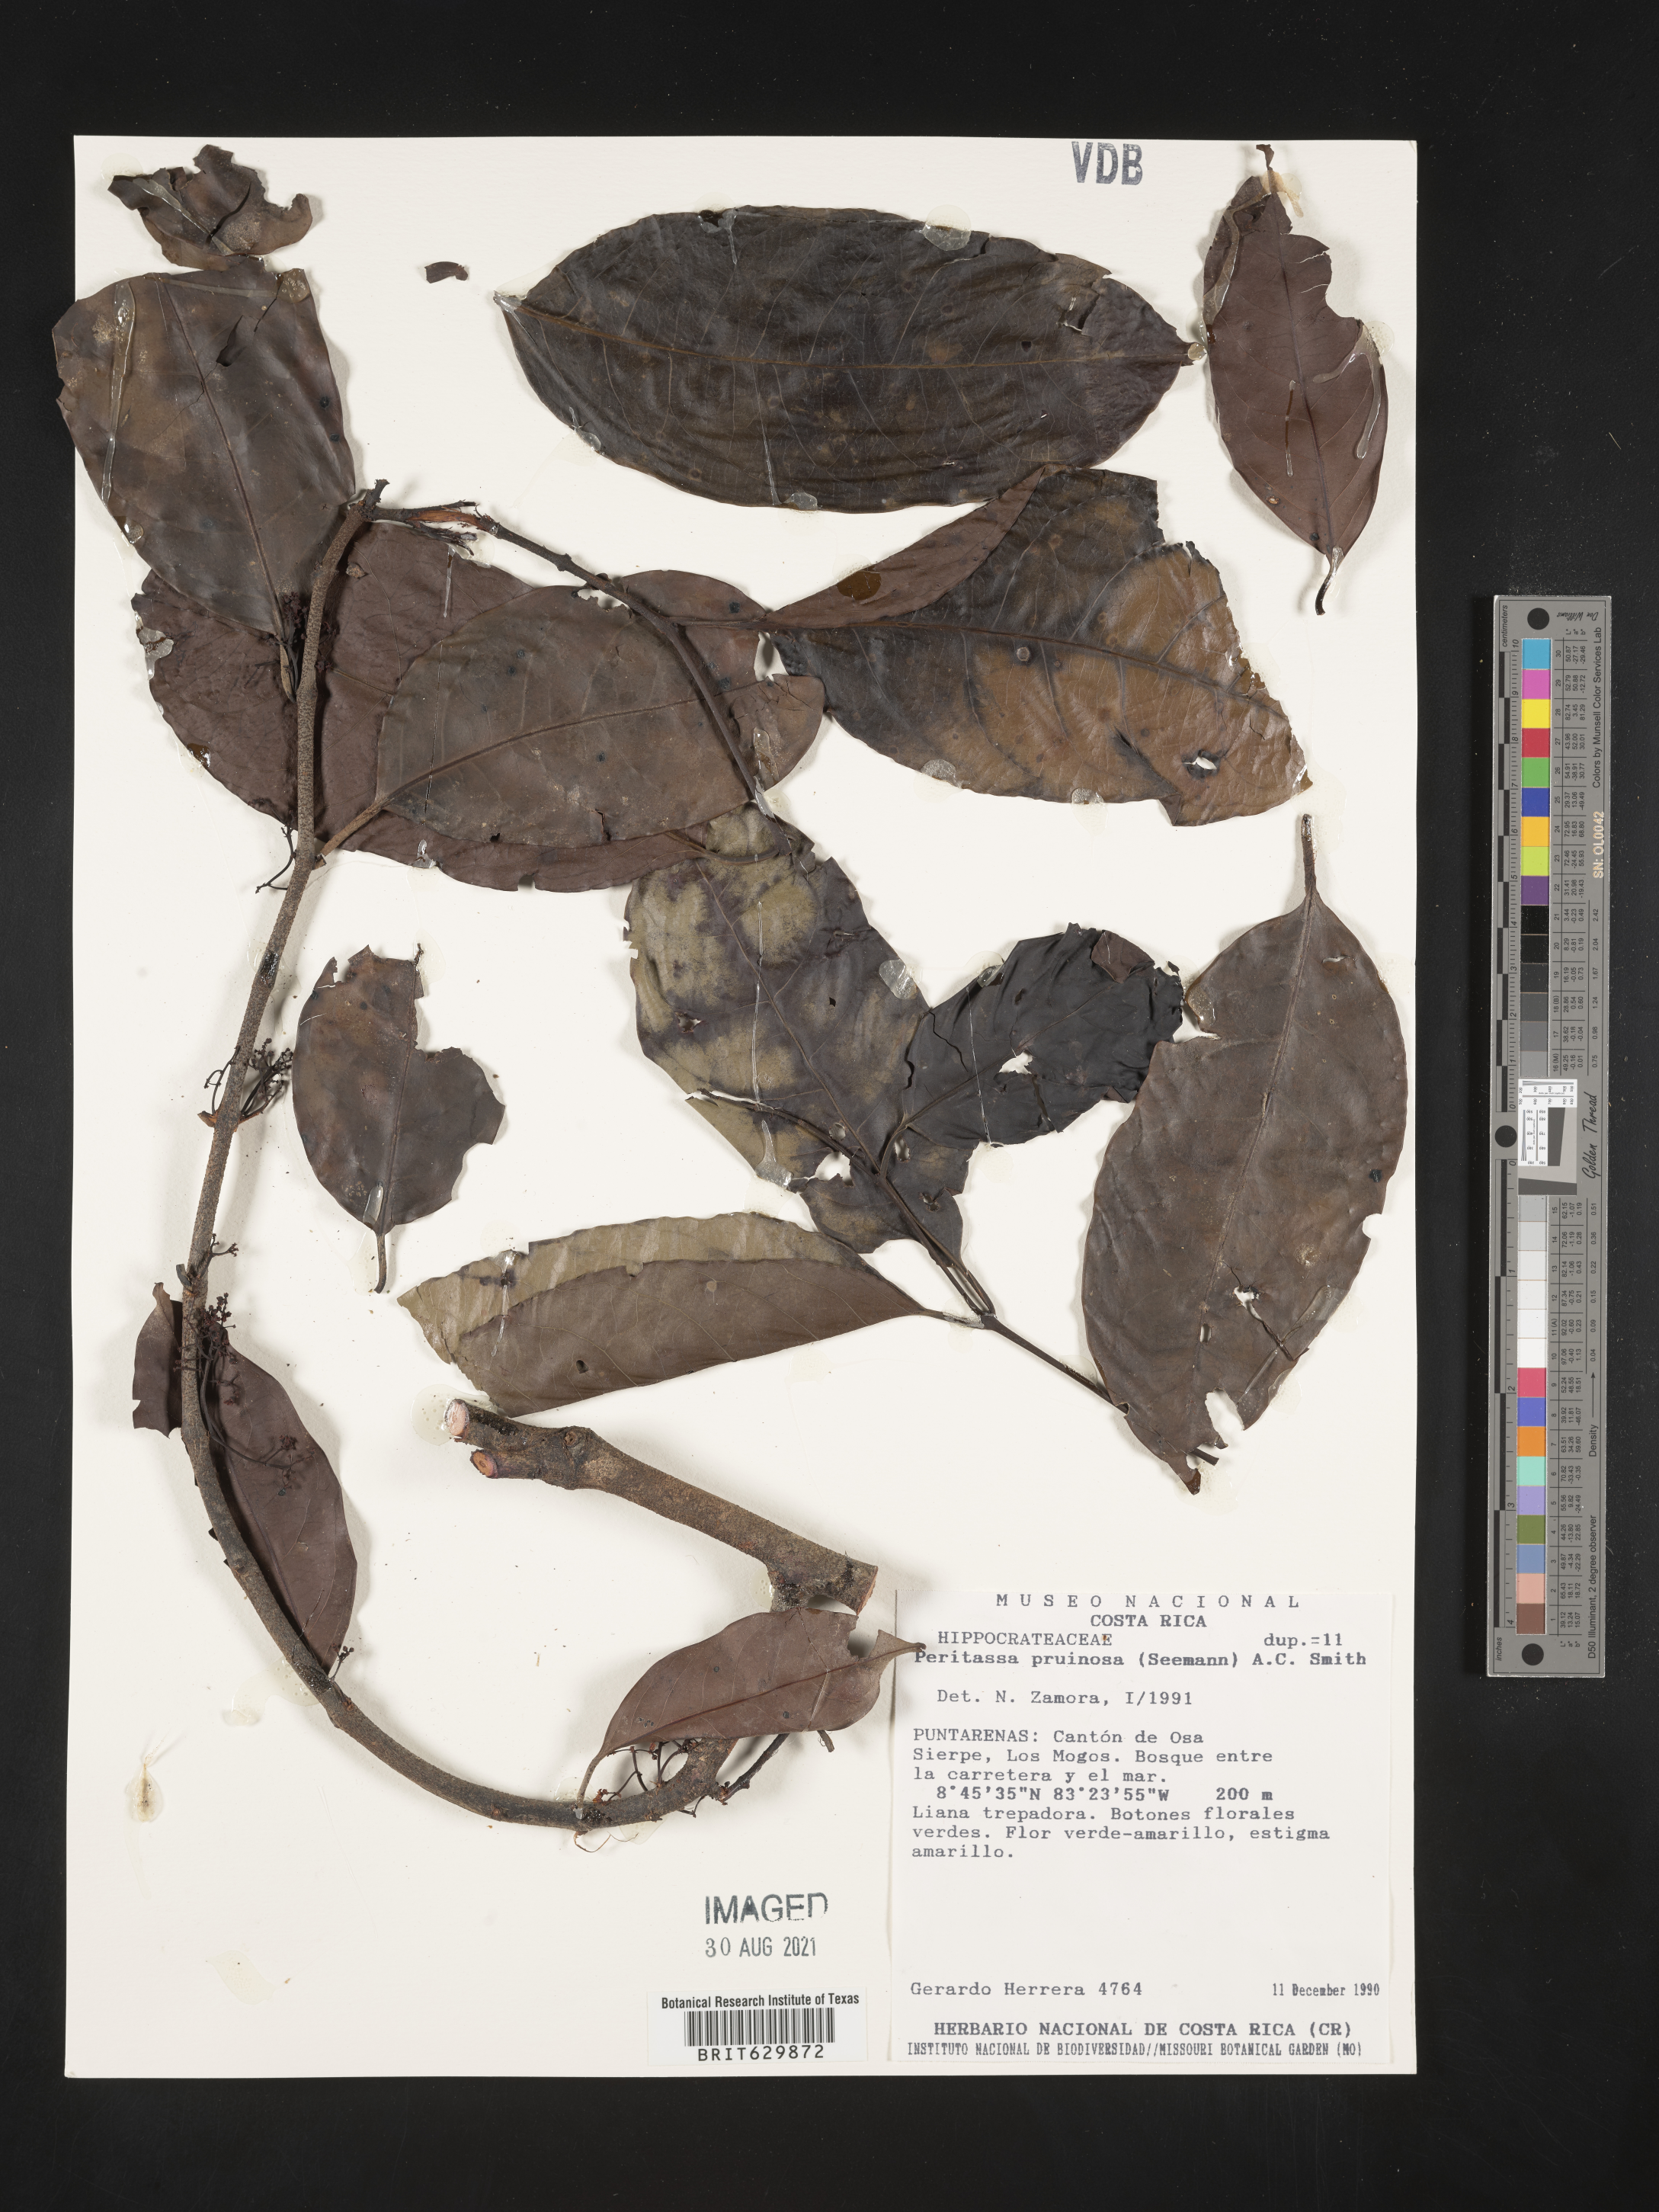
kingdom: Plantae
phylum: Tracheophyta
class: Magnoliopsida
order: Celastrales
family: Celastraceae
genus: Peritassa
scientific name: Peritassa pruinosa
